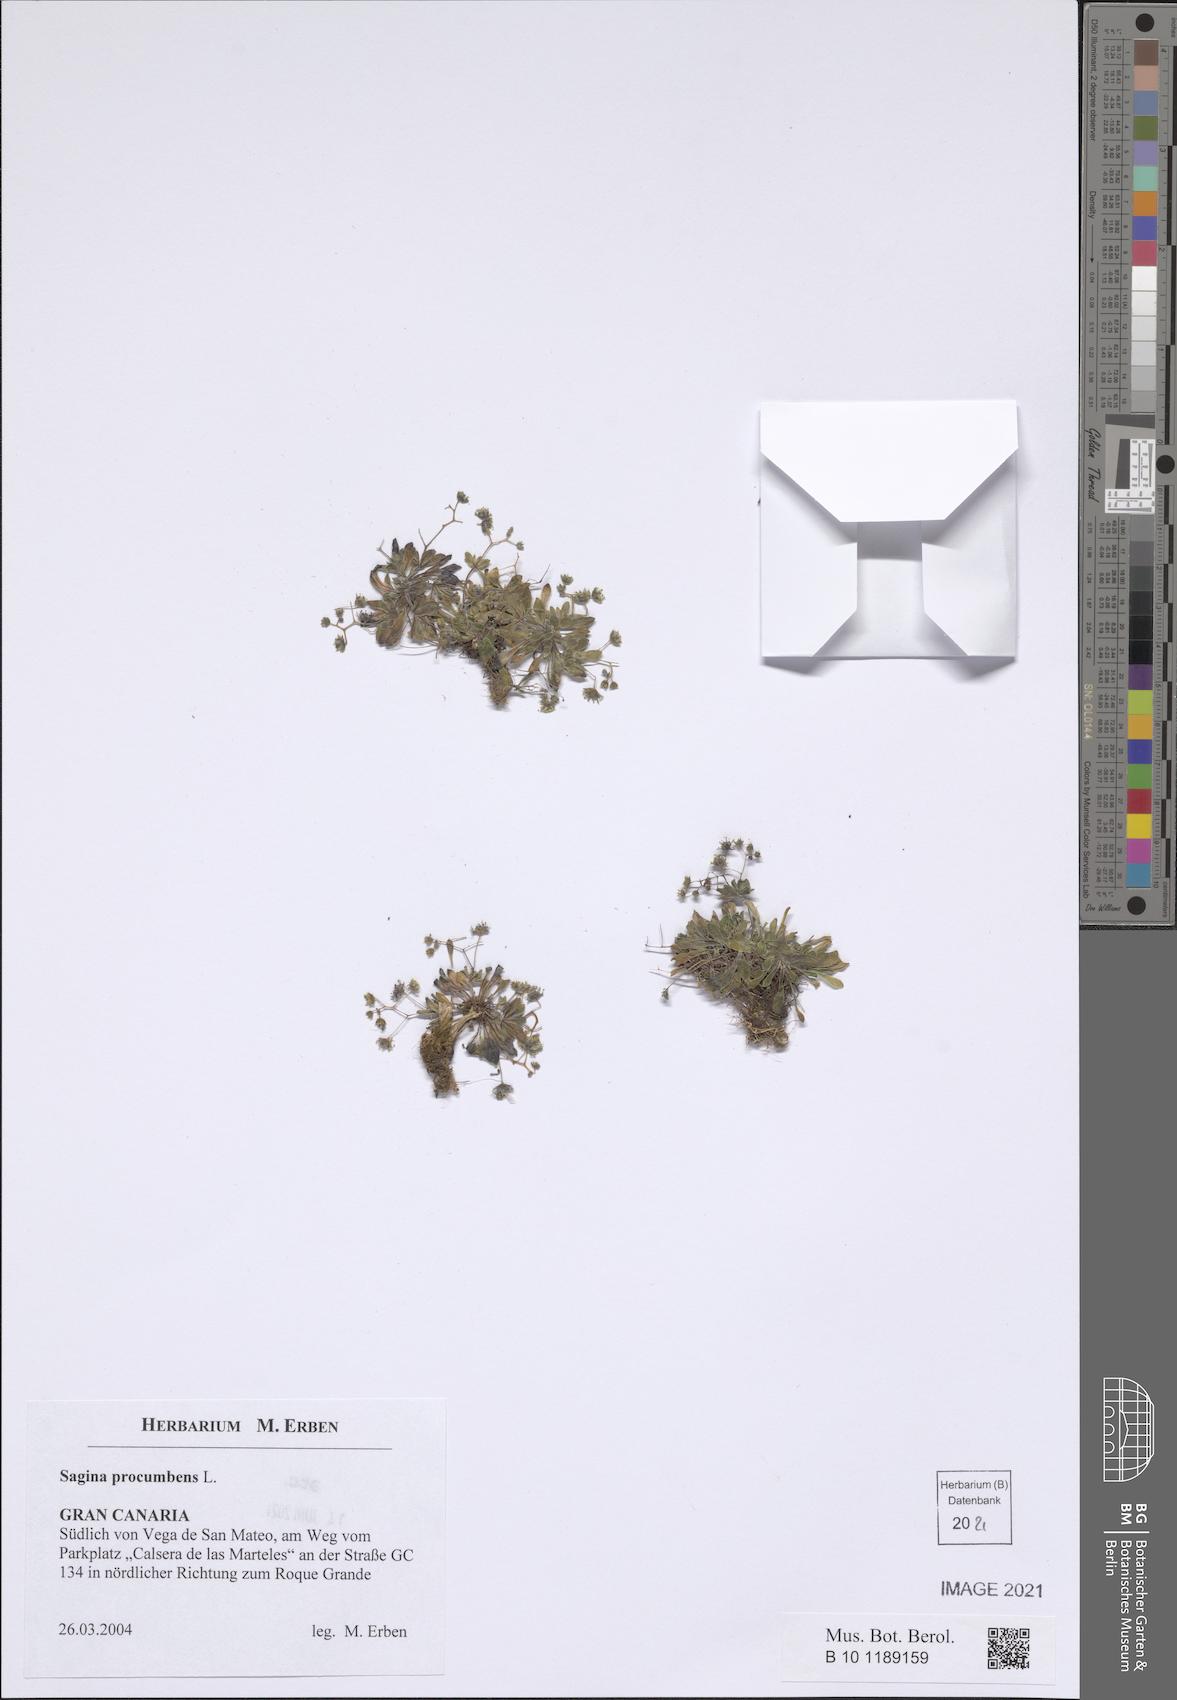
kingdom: Plantae
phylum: Tracheophyta
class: Magnoliopsida
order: Saxifragales
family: Crassulaceae
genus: Monanthes
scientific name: Monanthes brachycaulos
